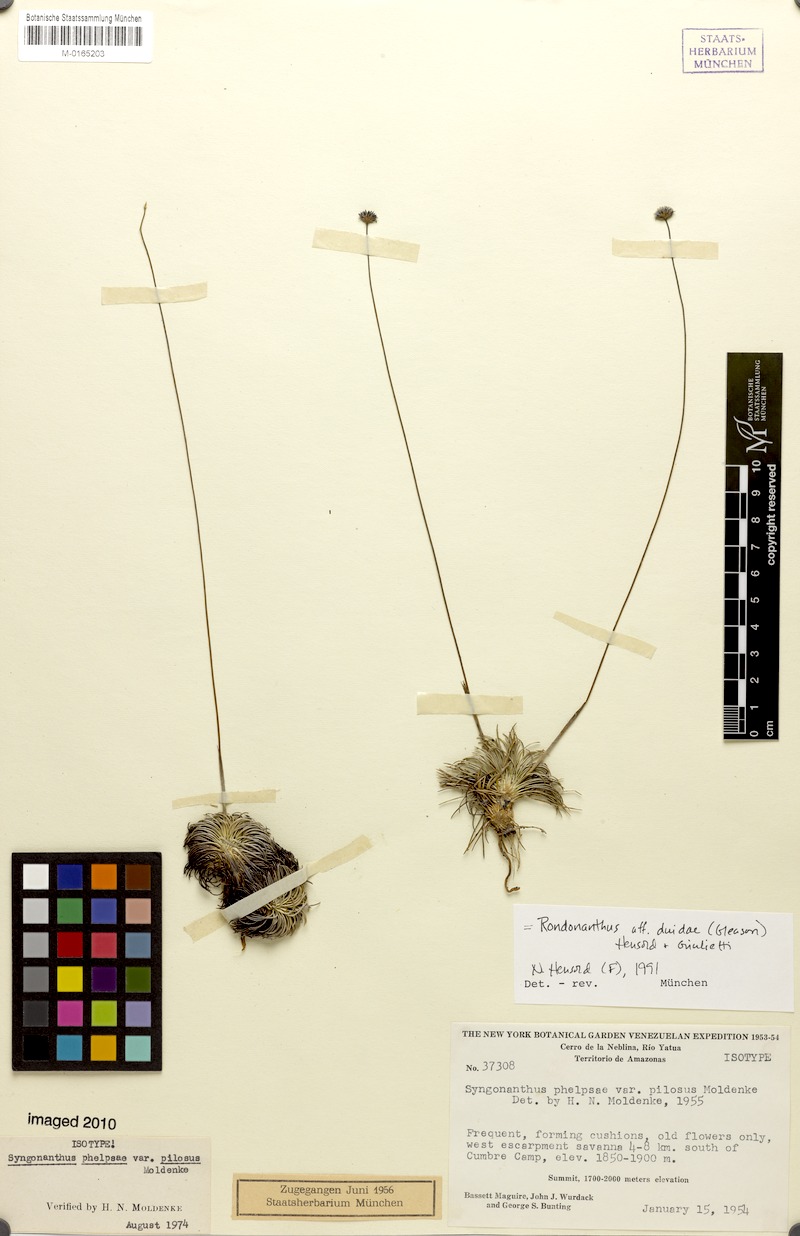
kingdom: Plantae
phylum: Tracheophyta
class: Liliopsida
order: Poales
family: Eriocaulaceae
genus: Rondonanthus
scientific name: Rondonanthus duidae
